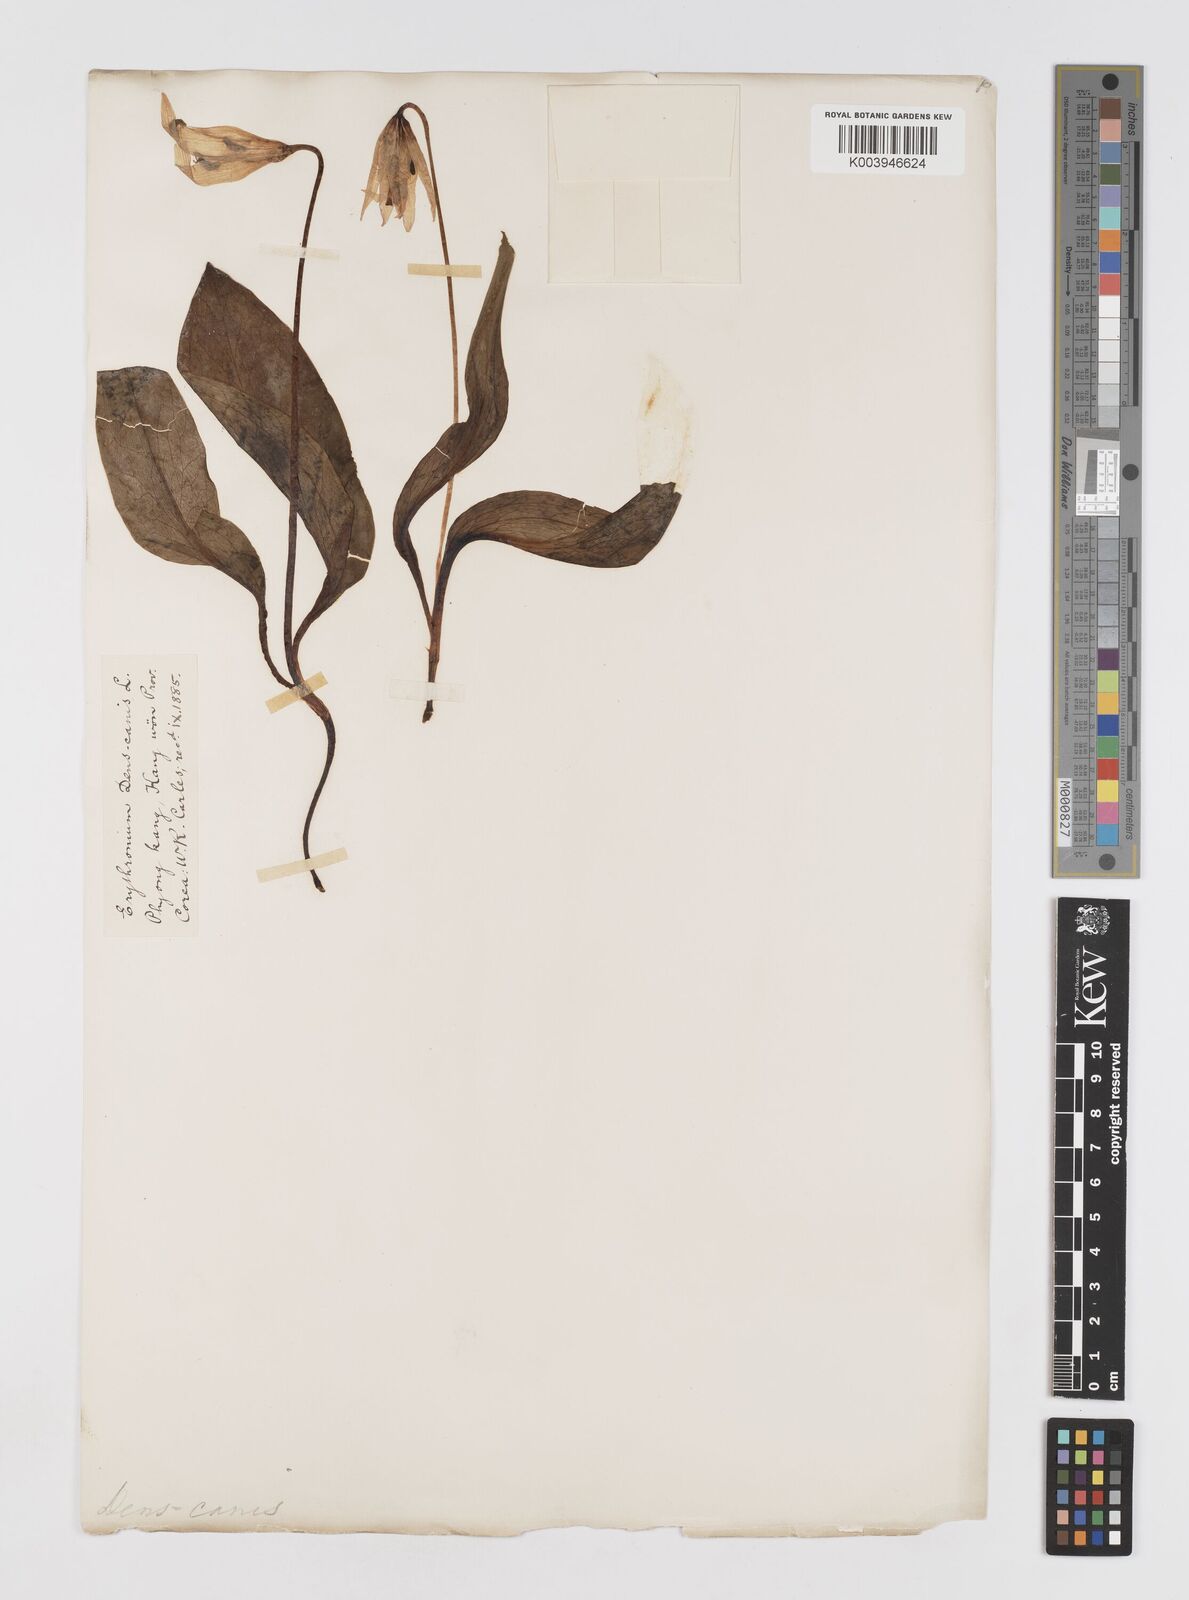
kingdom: Plantae
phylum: Tracheophyta
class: Liliopsida
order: Liliales
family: Liliaceae
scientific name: Liliaceae
